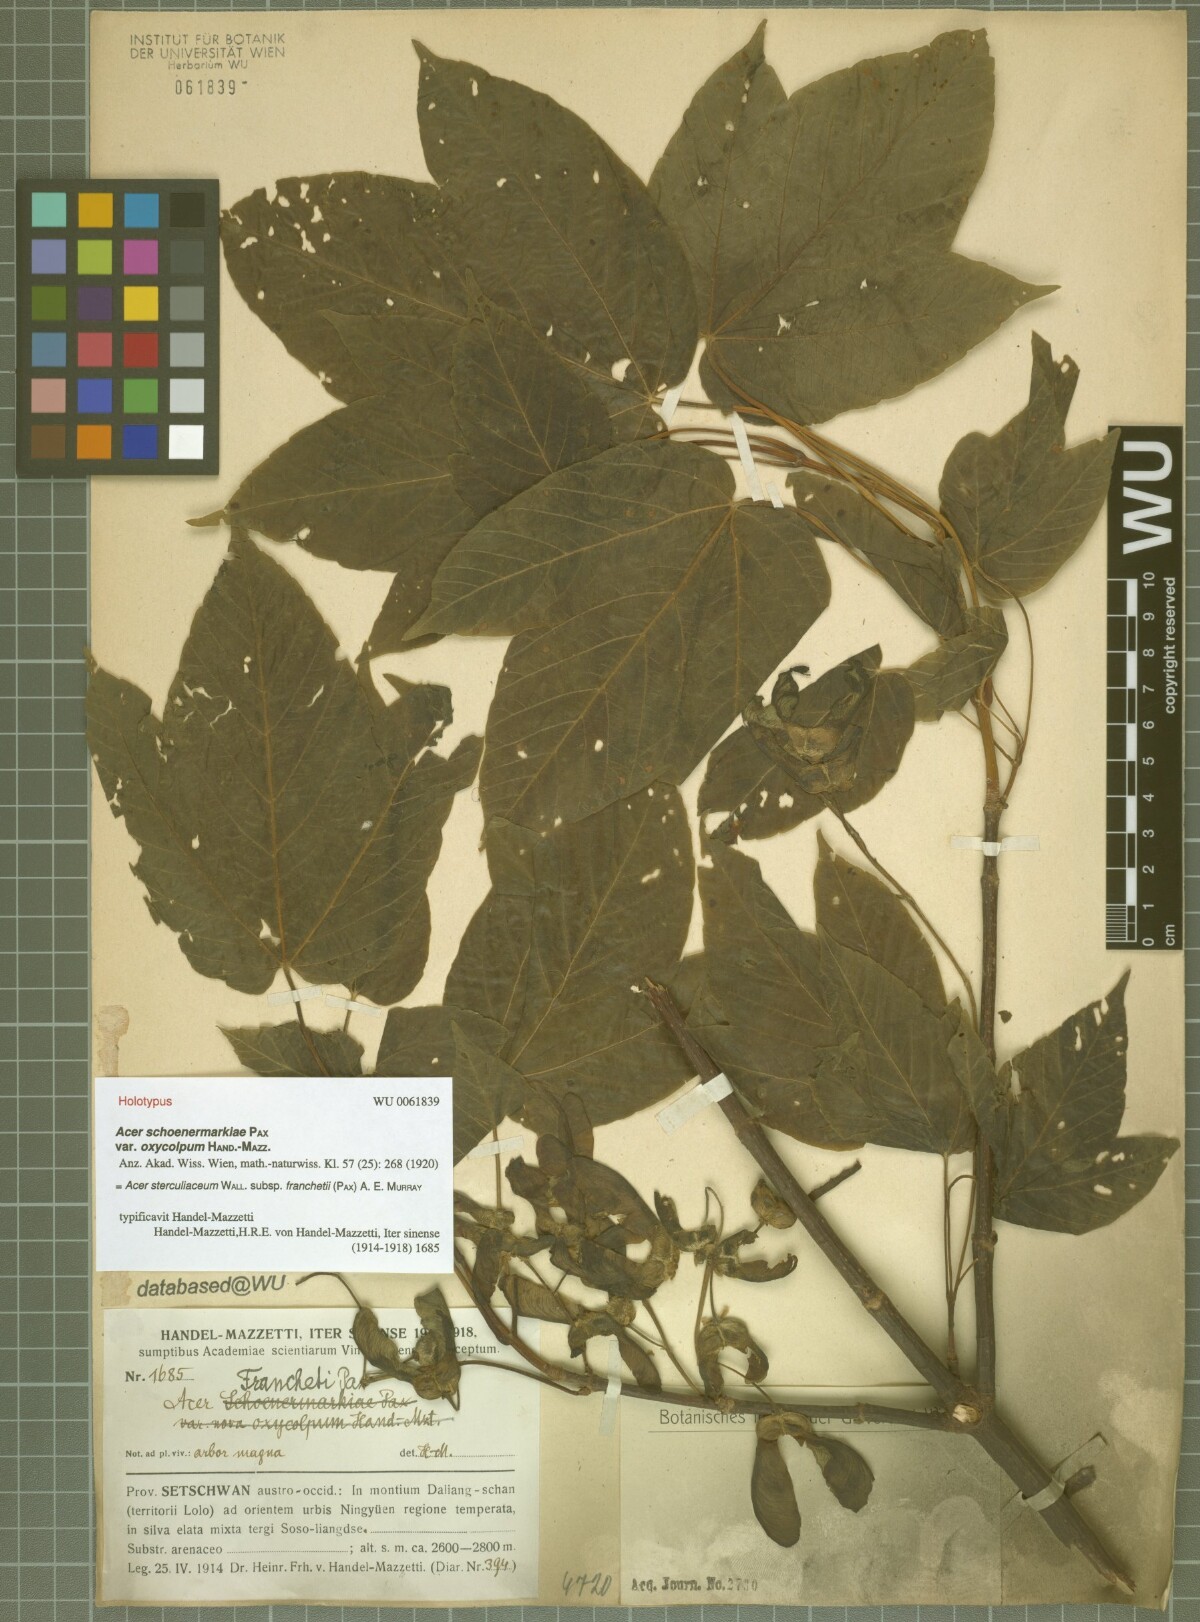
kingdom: Plantae
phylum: Tracheophyta
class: Magnoliopsida
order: Sapindales
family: Sapindaceae
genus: Acer
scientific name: Acer sterculiaceum
